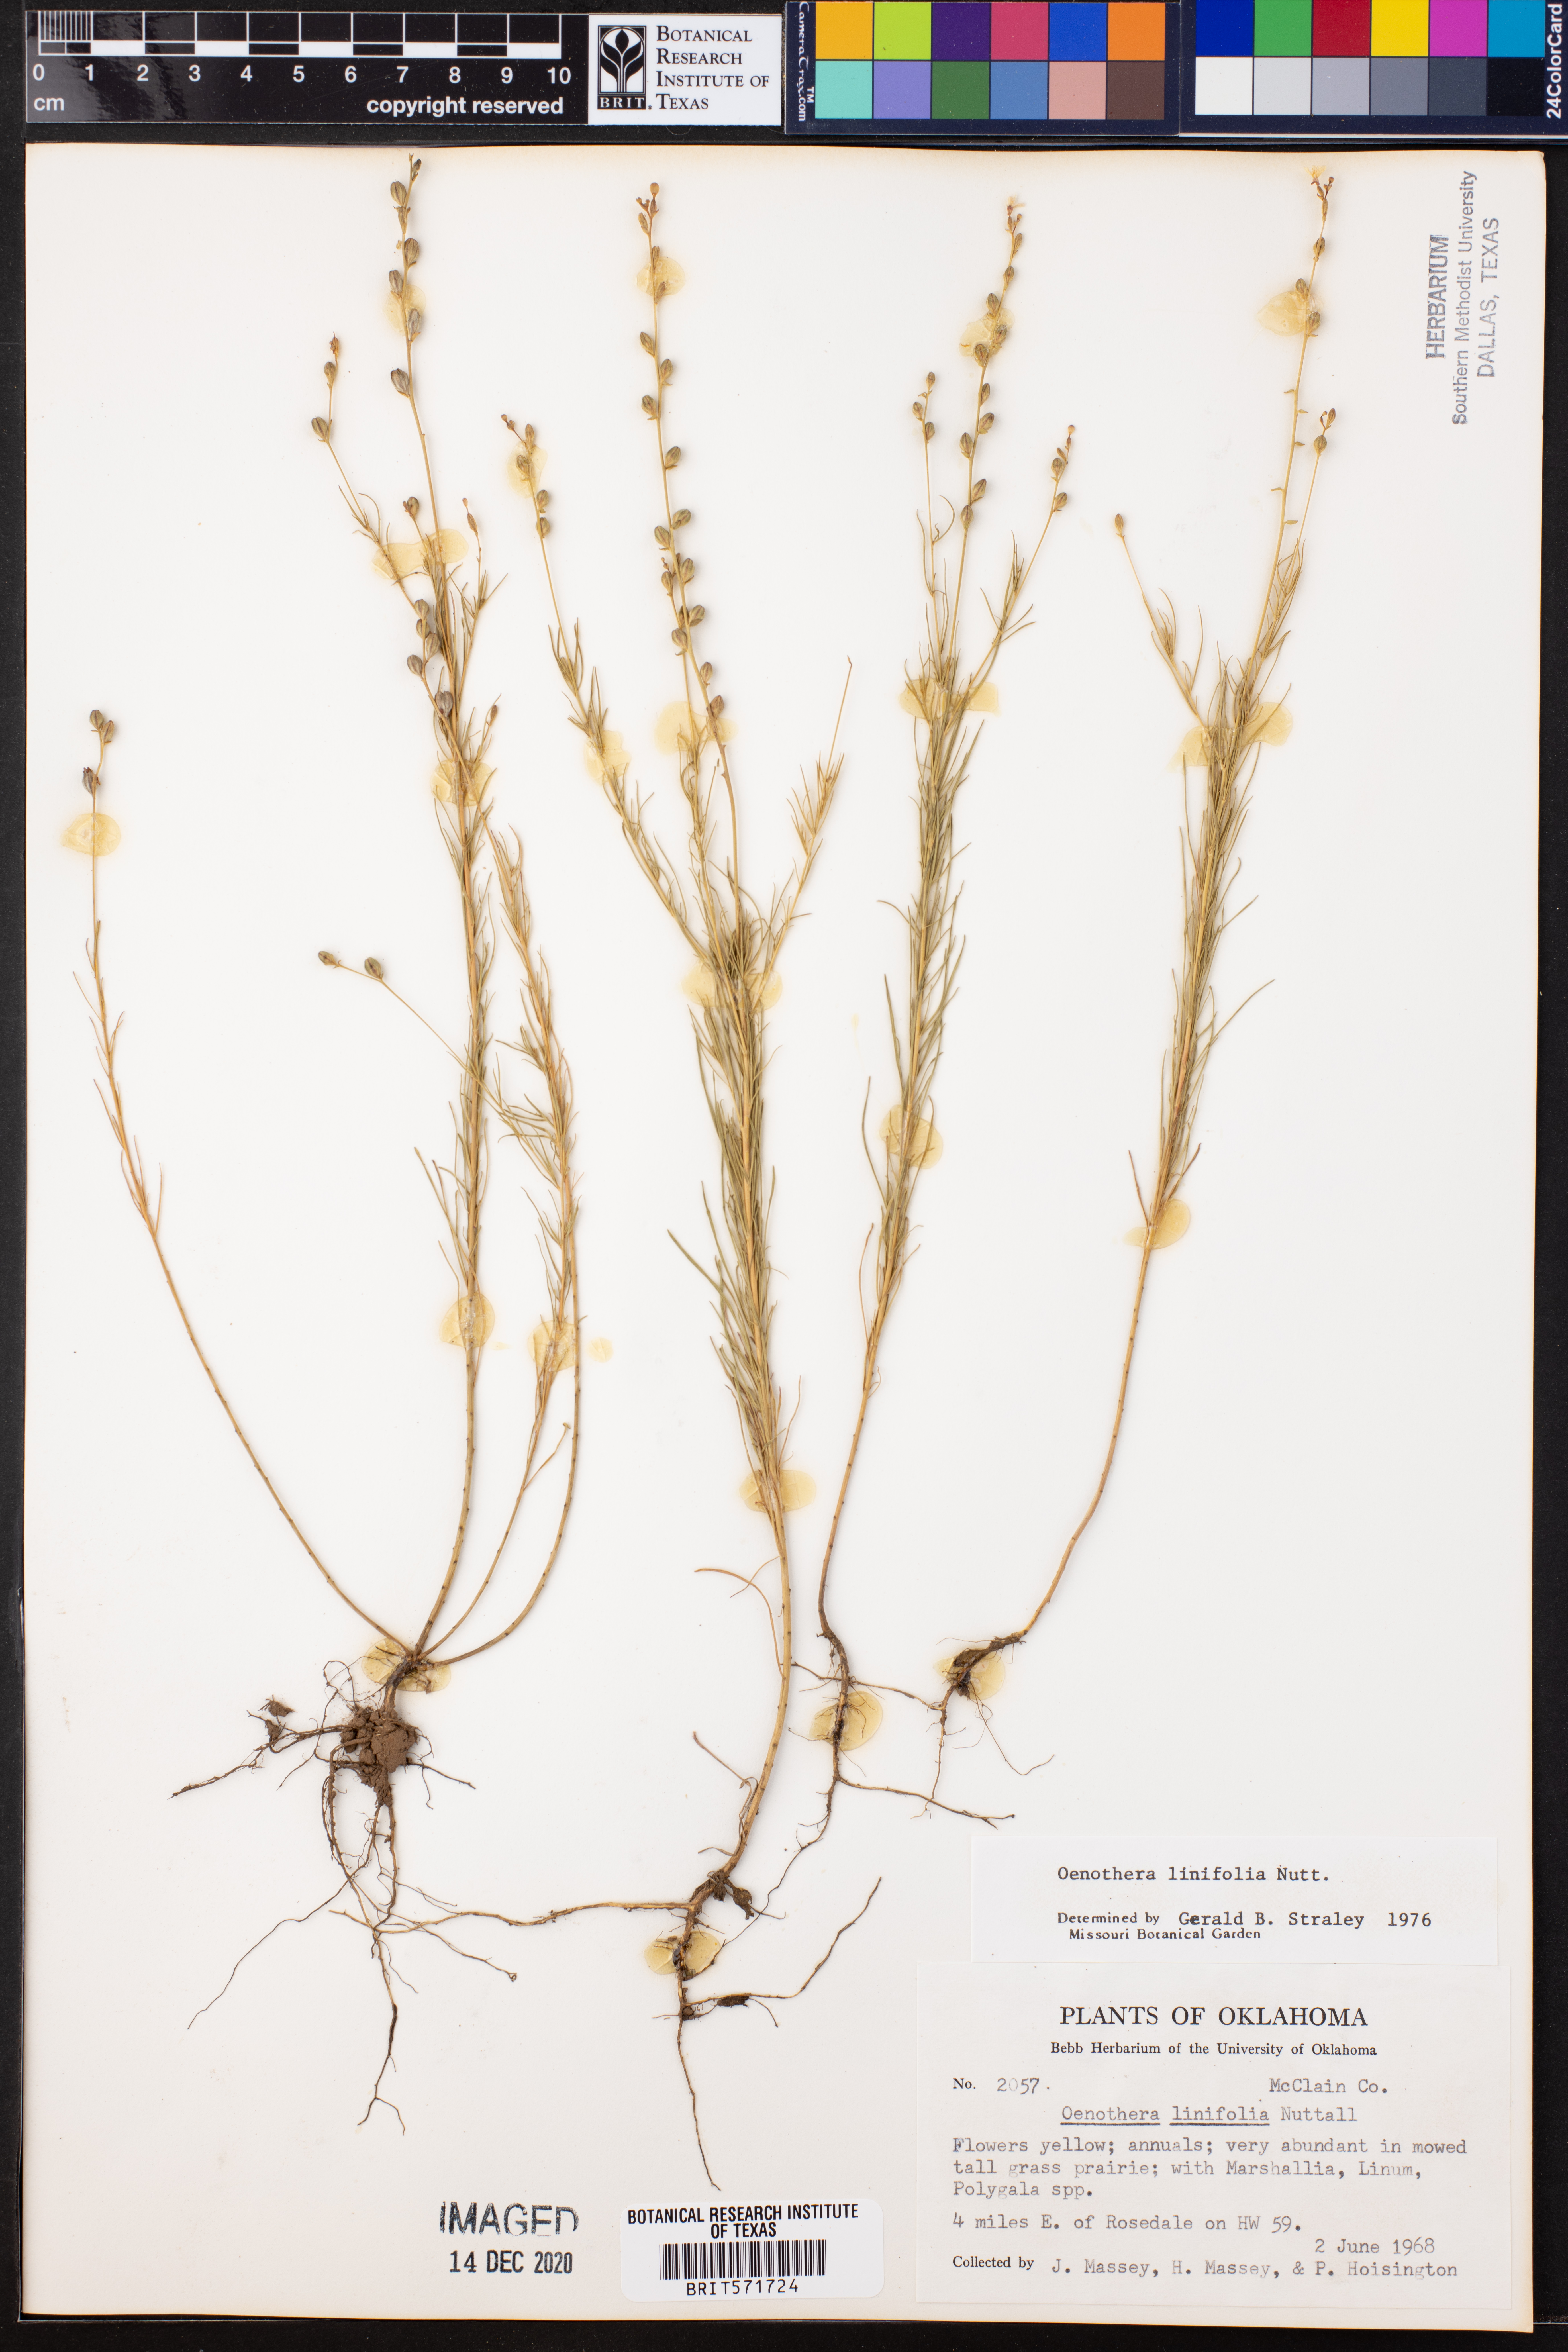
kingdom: Plantae
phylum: Tracheophyta
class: Magnoliopsida
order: Myrtales
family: Onagraceae
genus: Oenothera
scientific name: Oenothera linifolia
